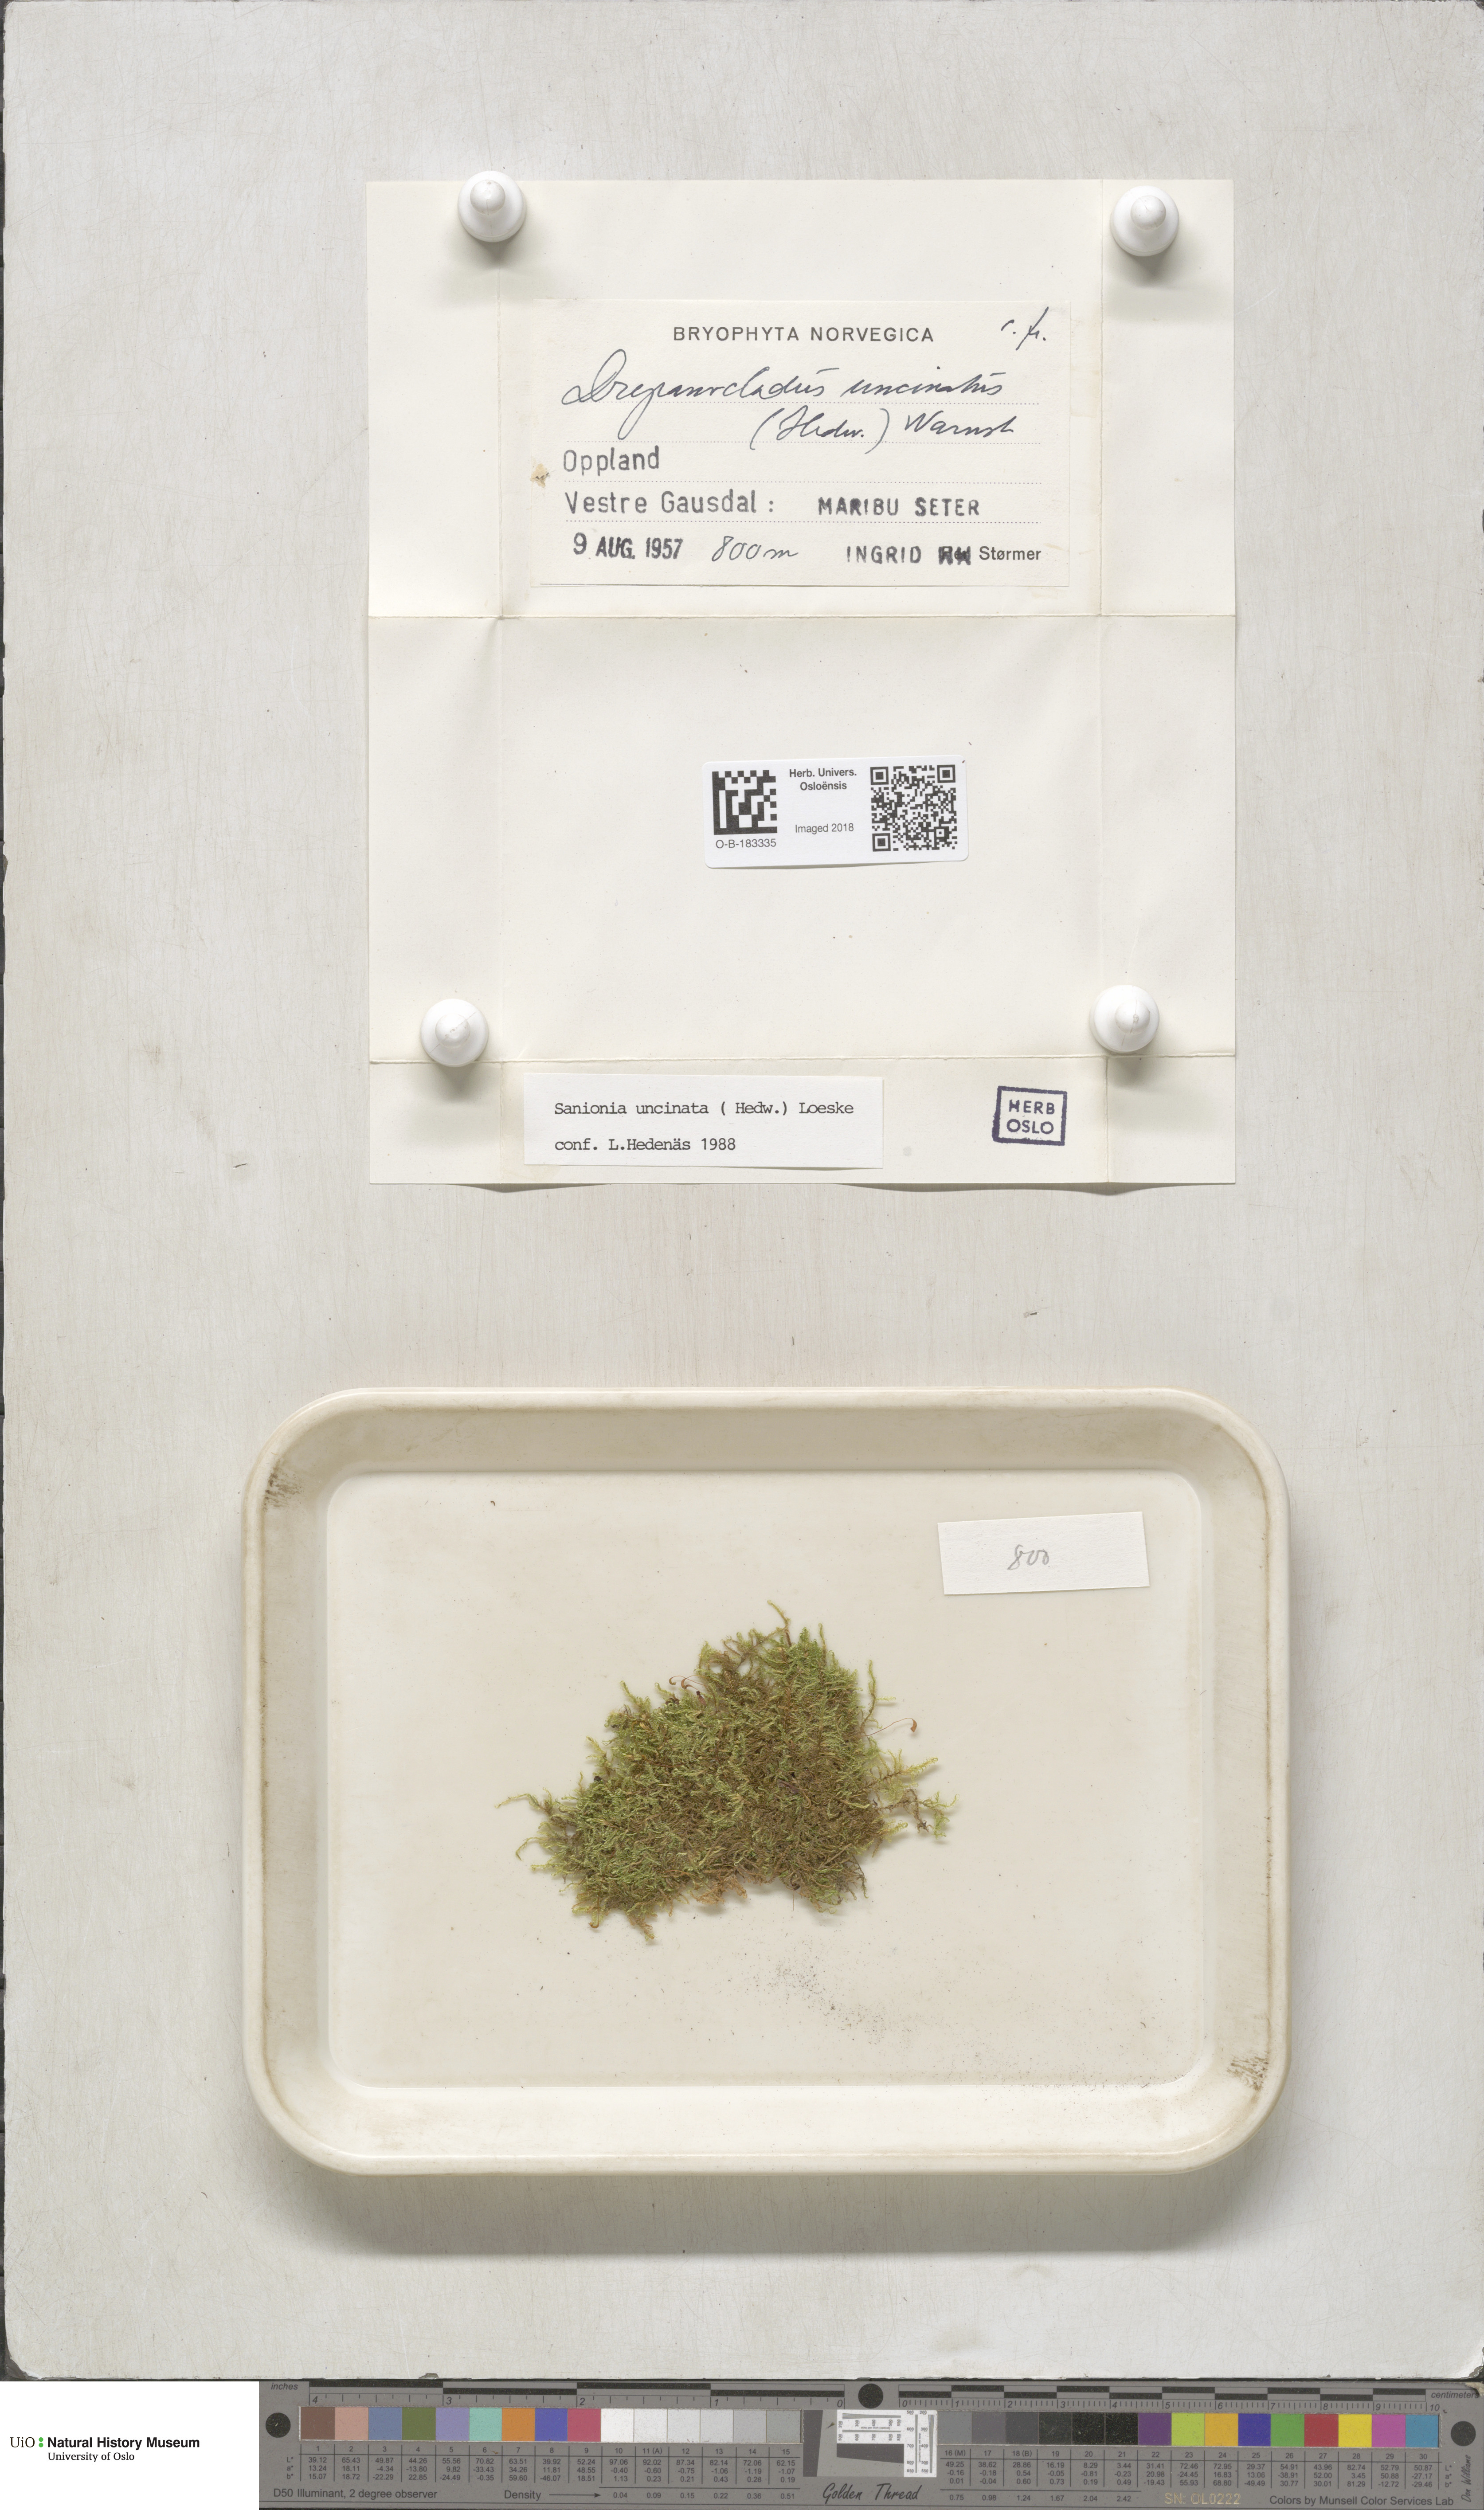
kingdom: Plantae
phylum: Bryophyta
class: Bryopsida
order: Hypnales
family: Scorpidiaceae
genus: Sanionia
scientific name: Sanionia uncinata
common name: Sickle moss
